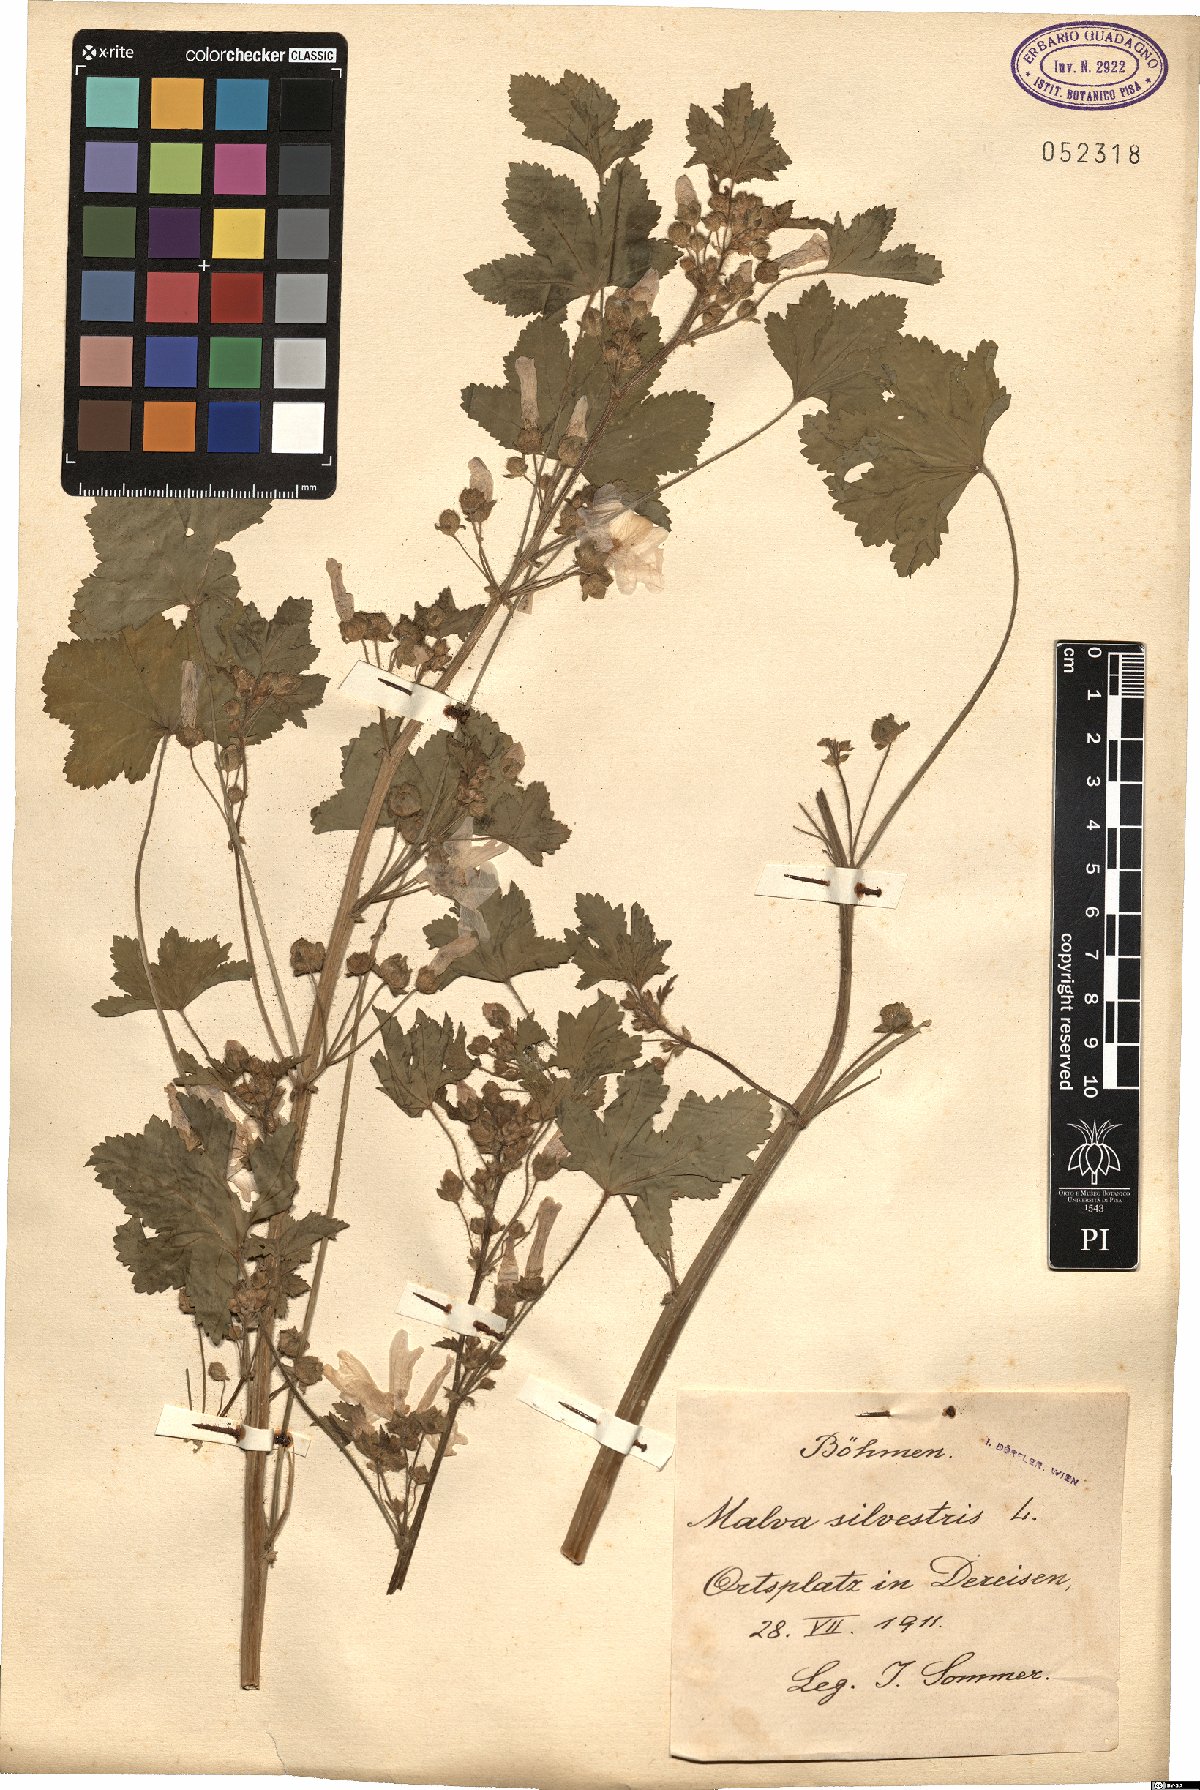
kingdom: Plantae
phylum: Tracheophyta
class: Magnoliopsida
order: Malvales
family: Malvaceae
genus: Malva
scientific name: Malva sylvestris
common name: Common mallow
